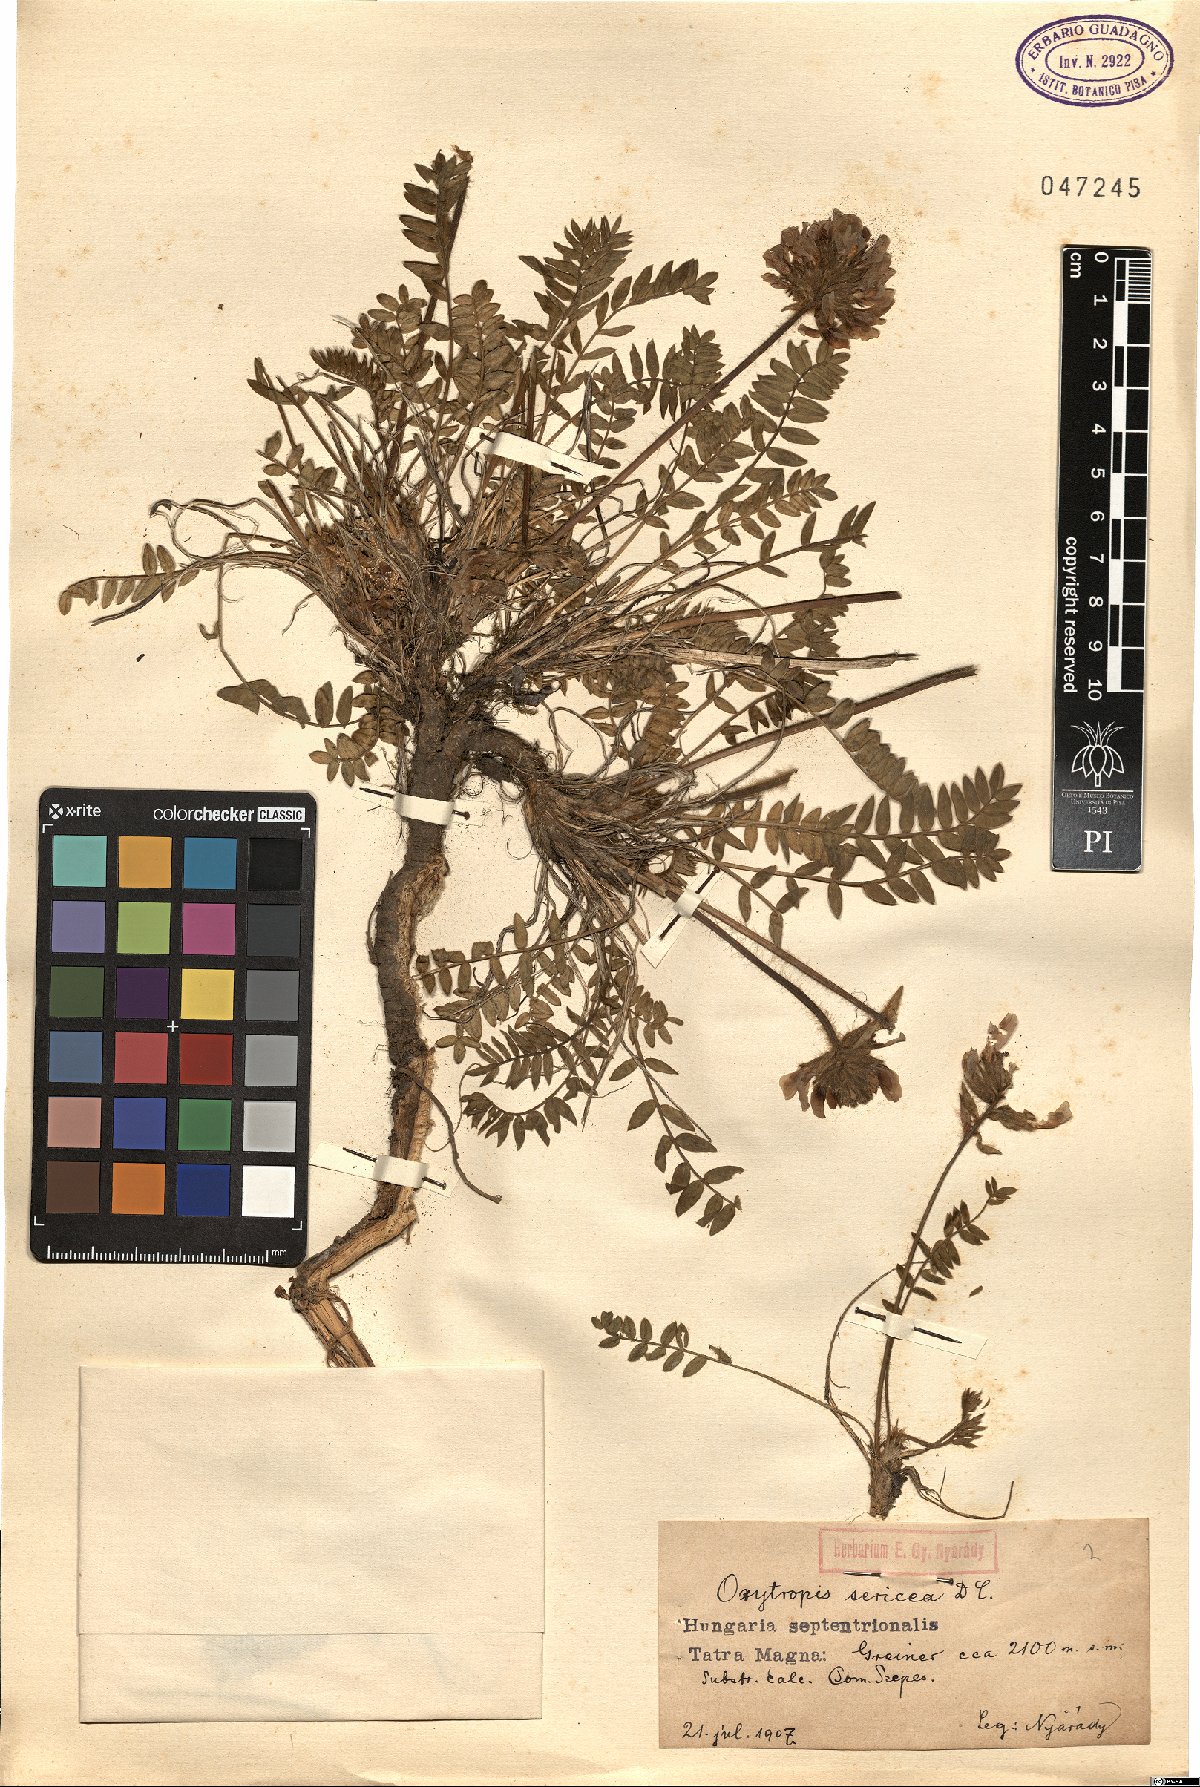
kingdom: Plantae
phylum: Tracheophyta
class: Magnoliopsida
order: Fabales
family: Fabaceae
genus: Oxytropis
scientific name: Oxytropis halleri
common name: Purple oxytropis
